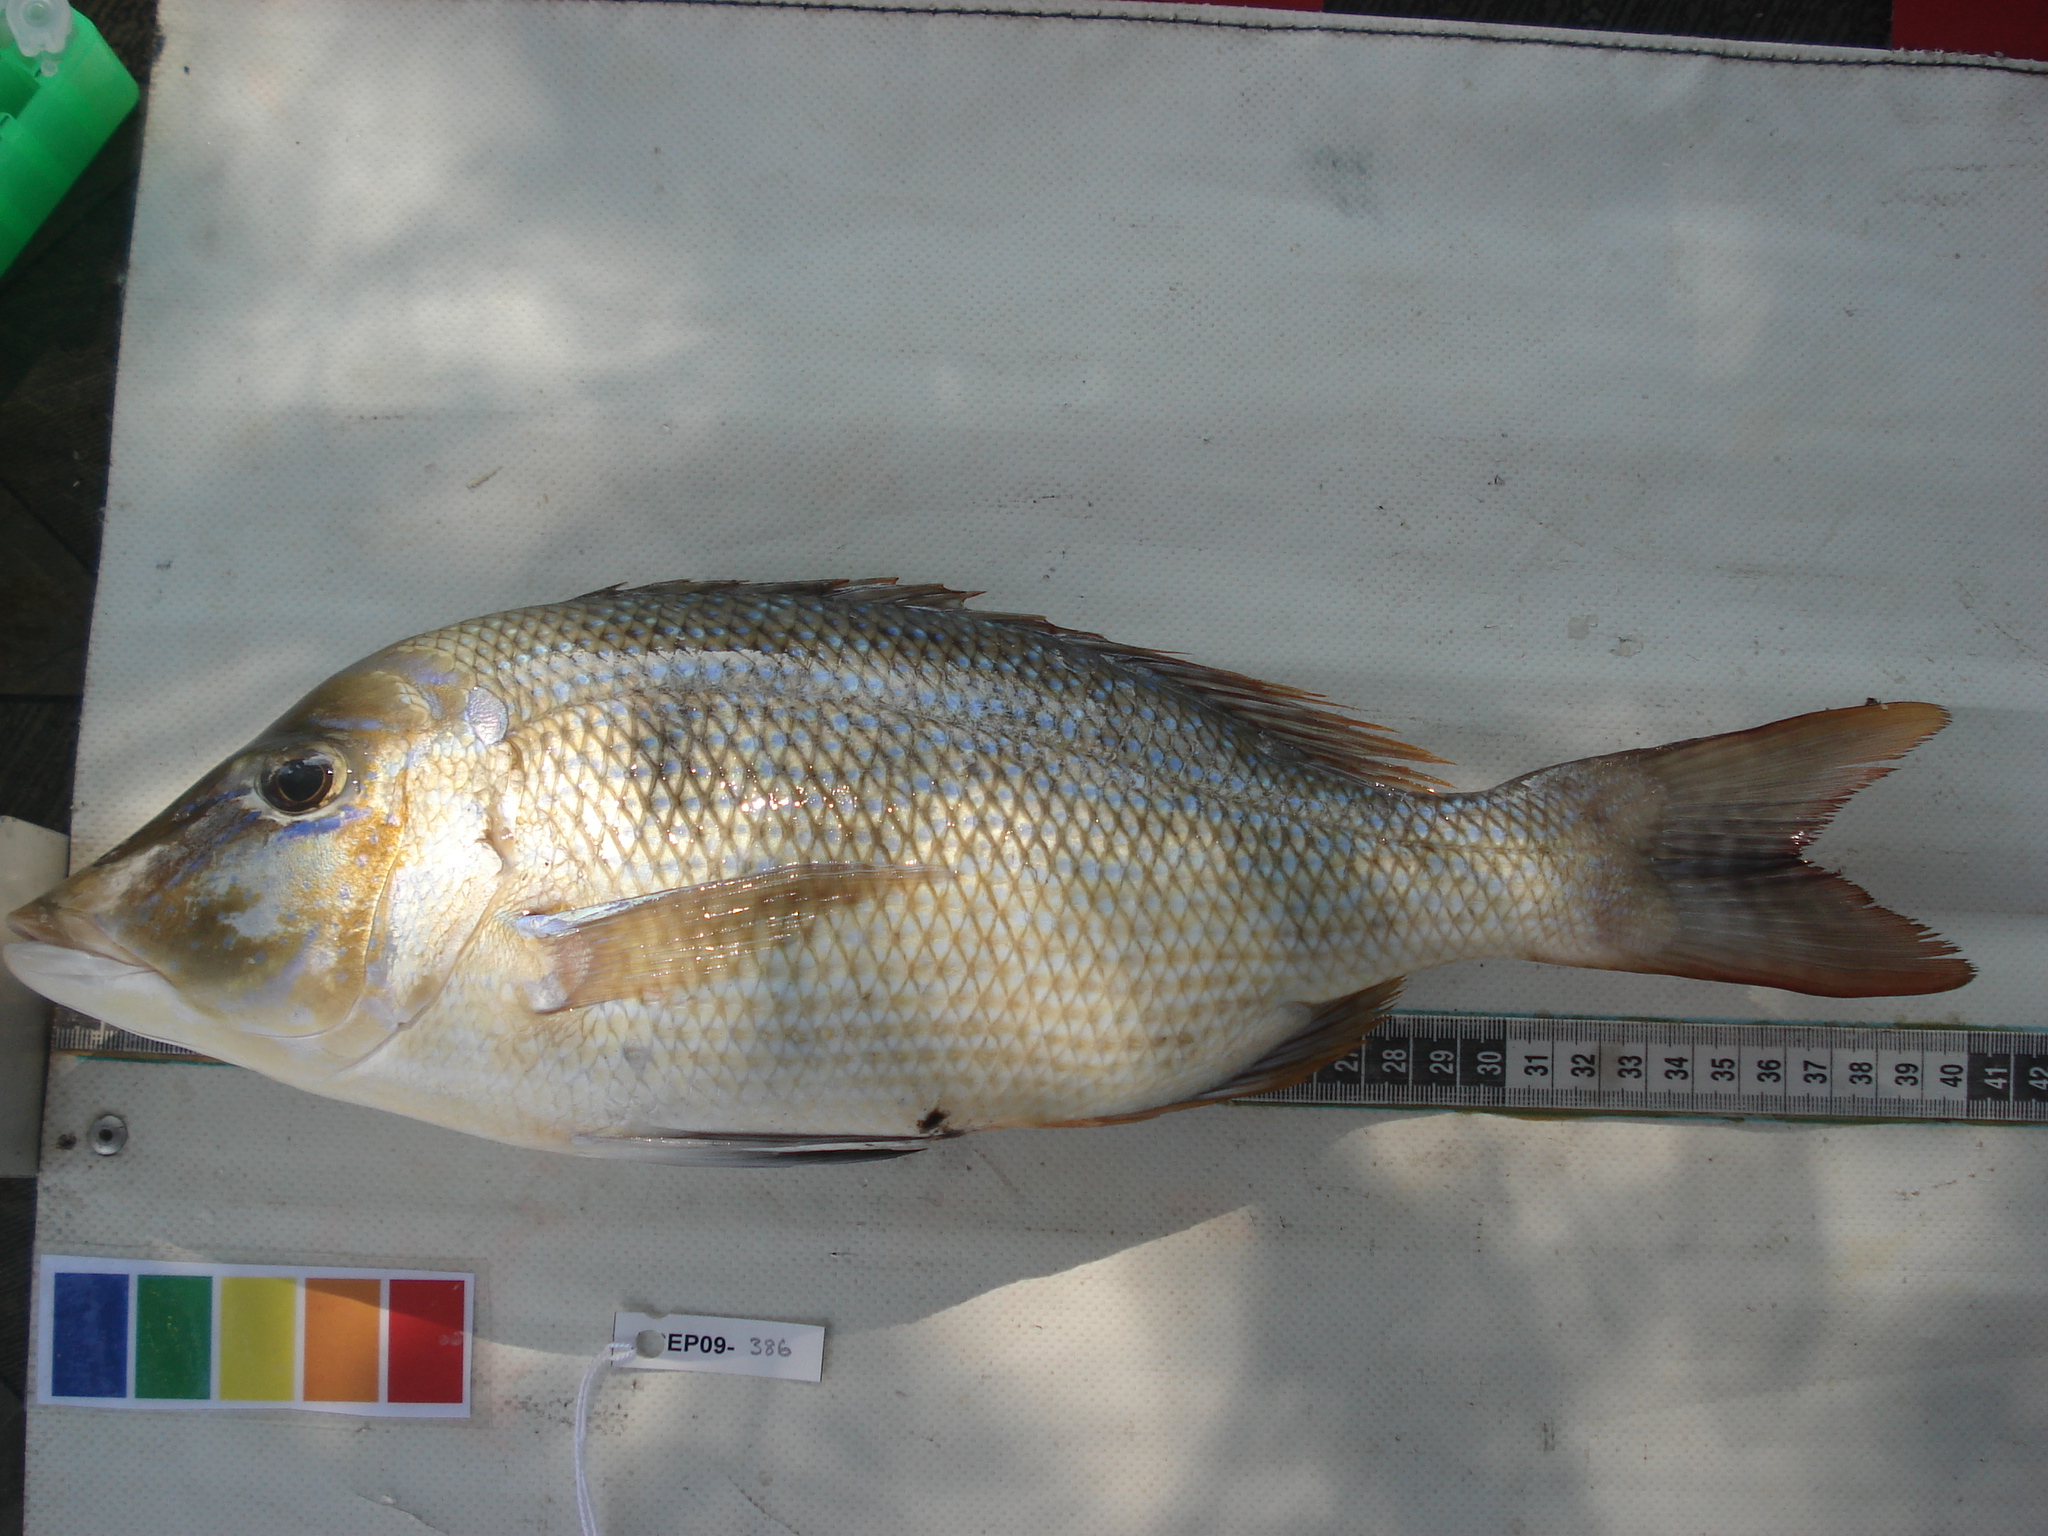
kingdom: Animalia
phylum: Chordata
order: Perciformes
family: Lethrinidae
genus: Lethrinus
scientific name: Lethrinus nebulosus
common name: Spangled emperor
